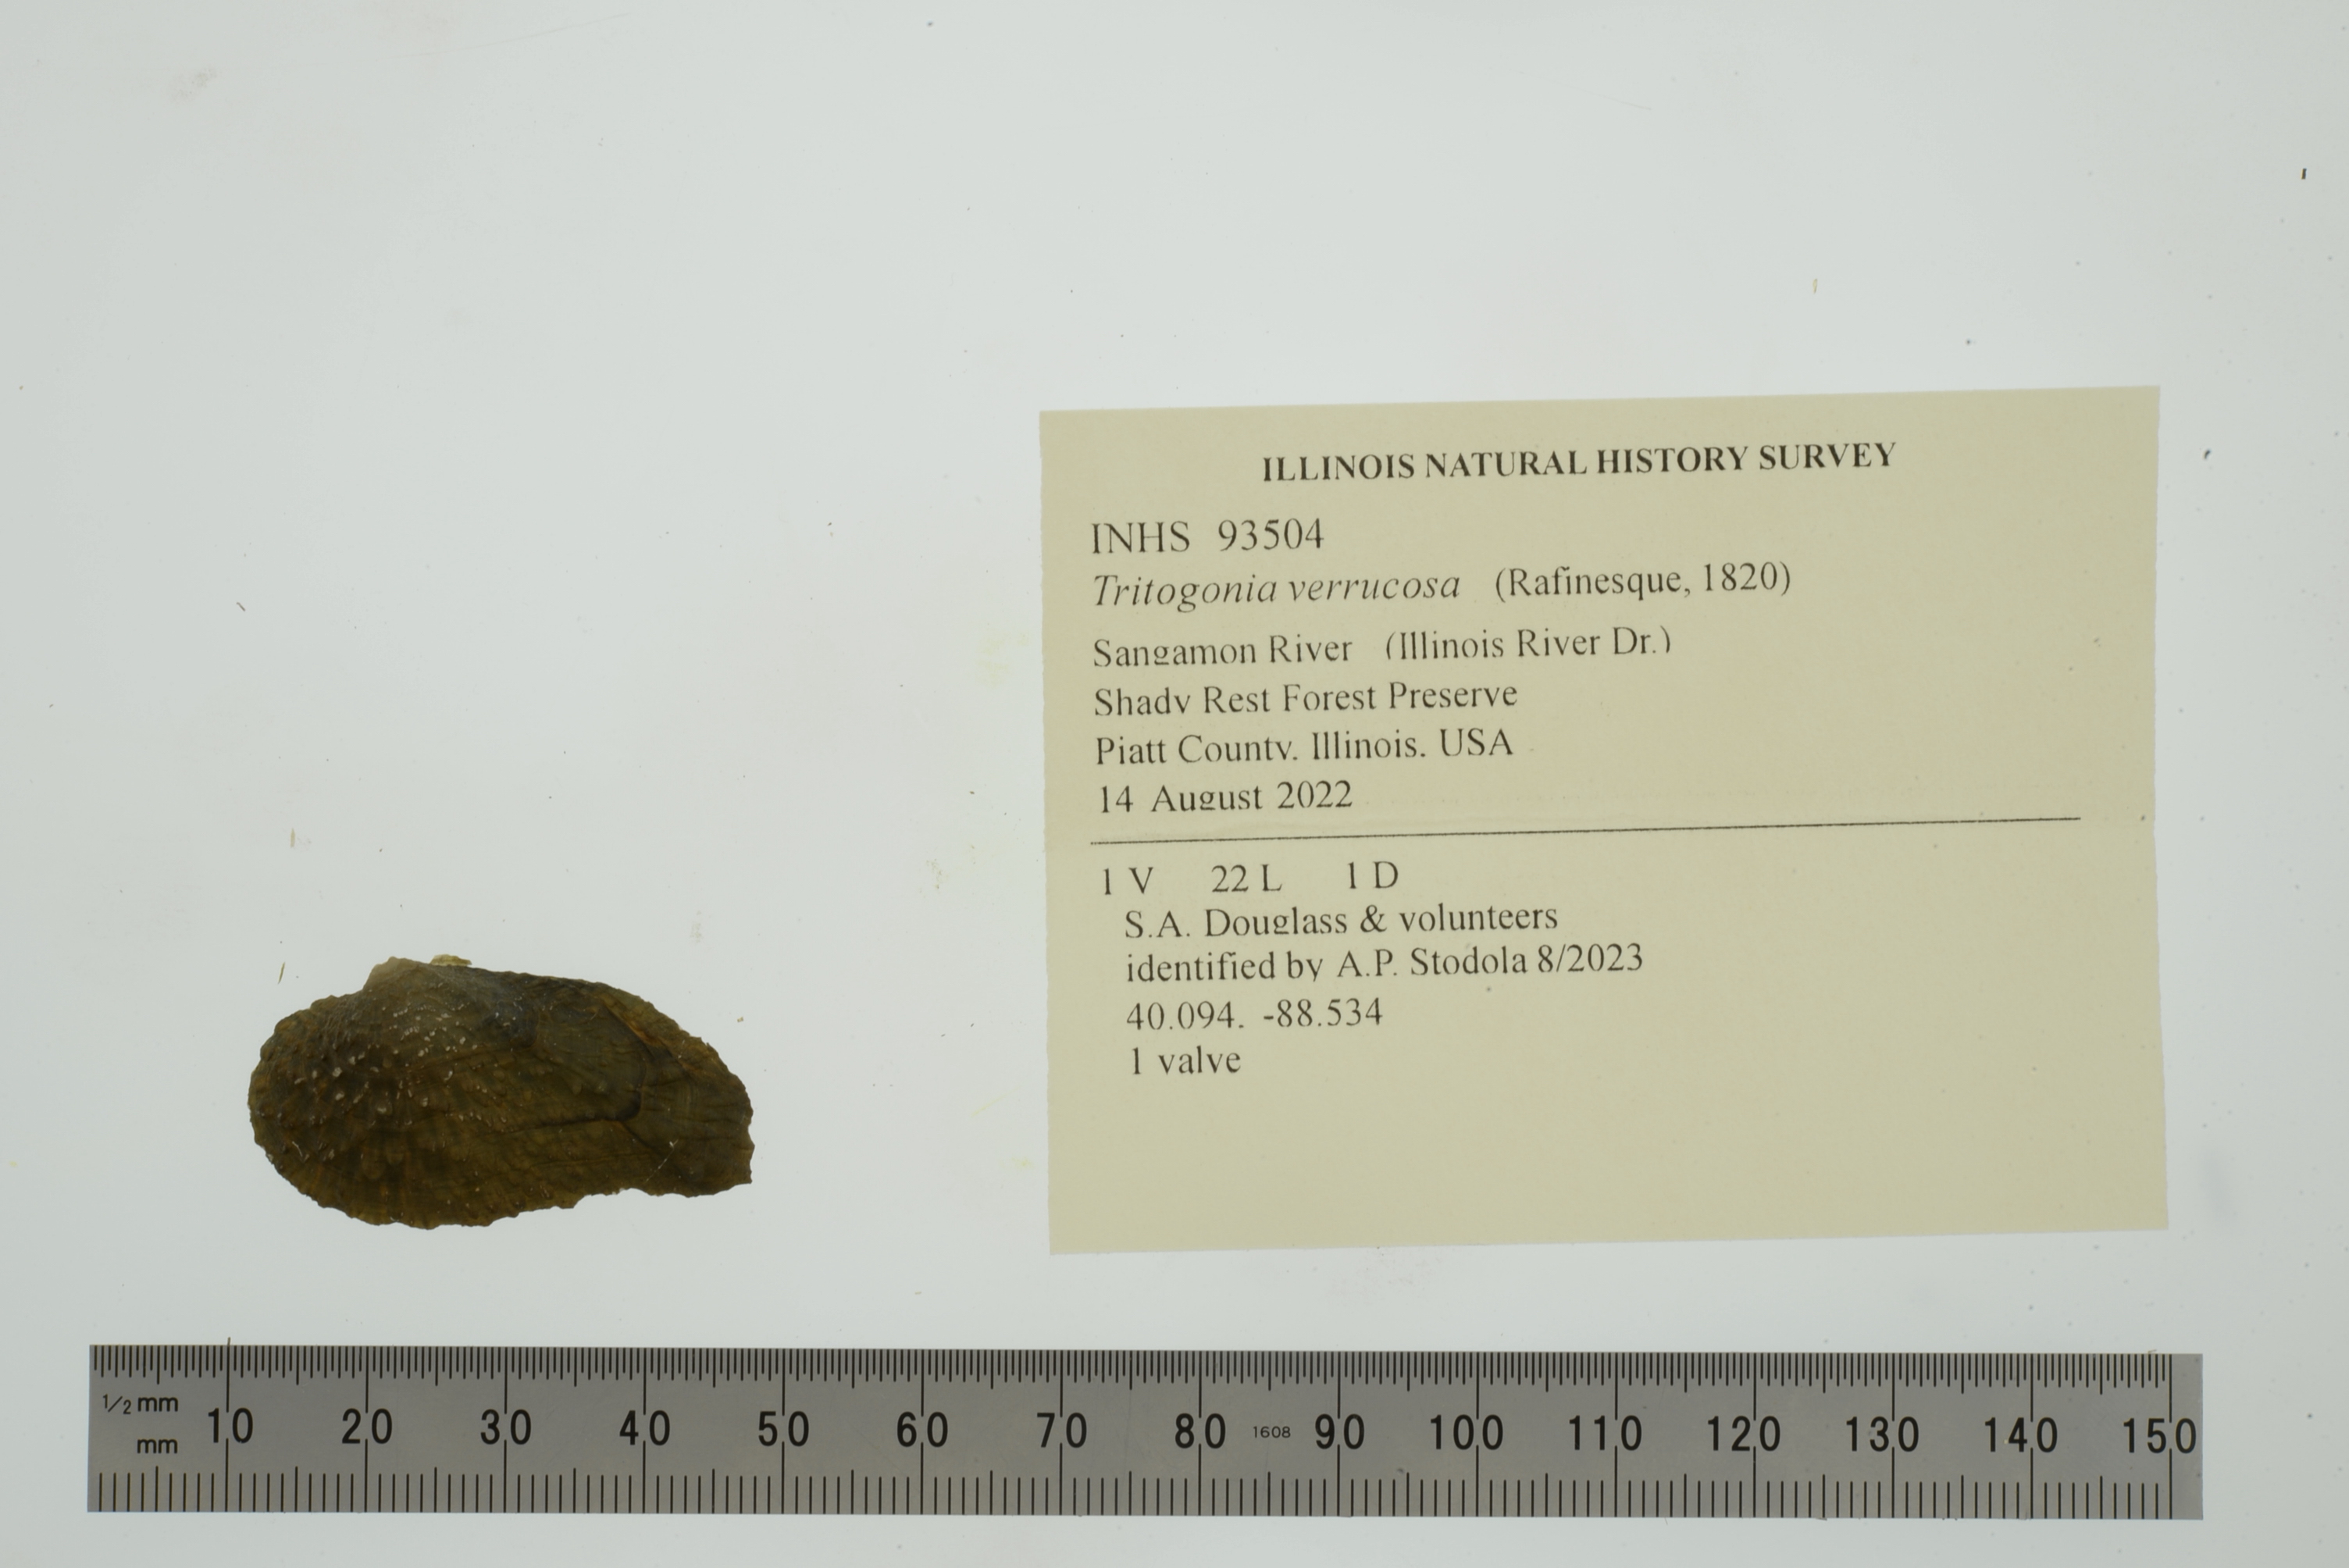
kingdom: Animalia
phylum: Mollusca
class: Bivalvia
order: Unionida
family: Unionidae
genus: Tritogonia
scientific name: Tritogonia verrucosa
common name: Pistolgrip
